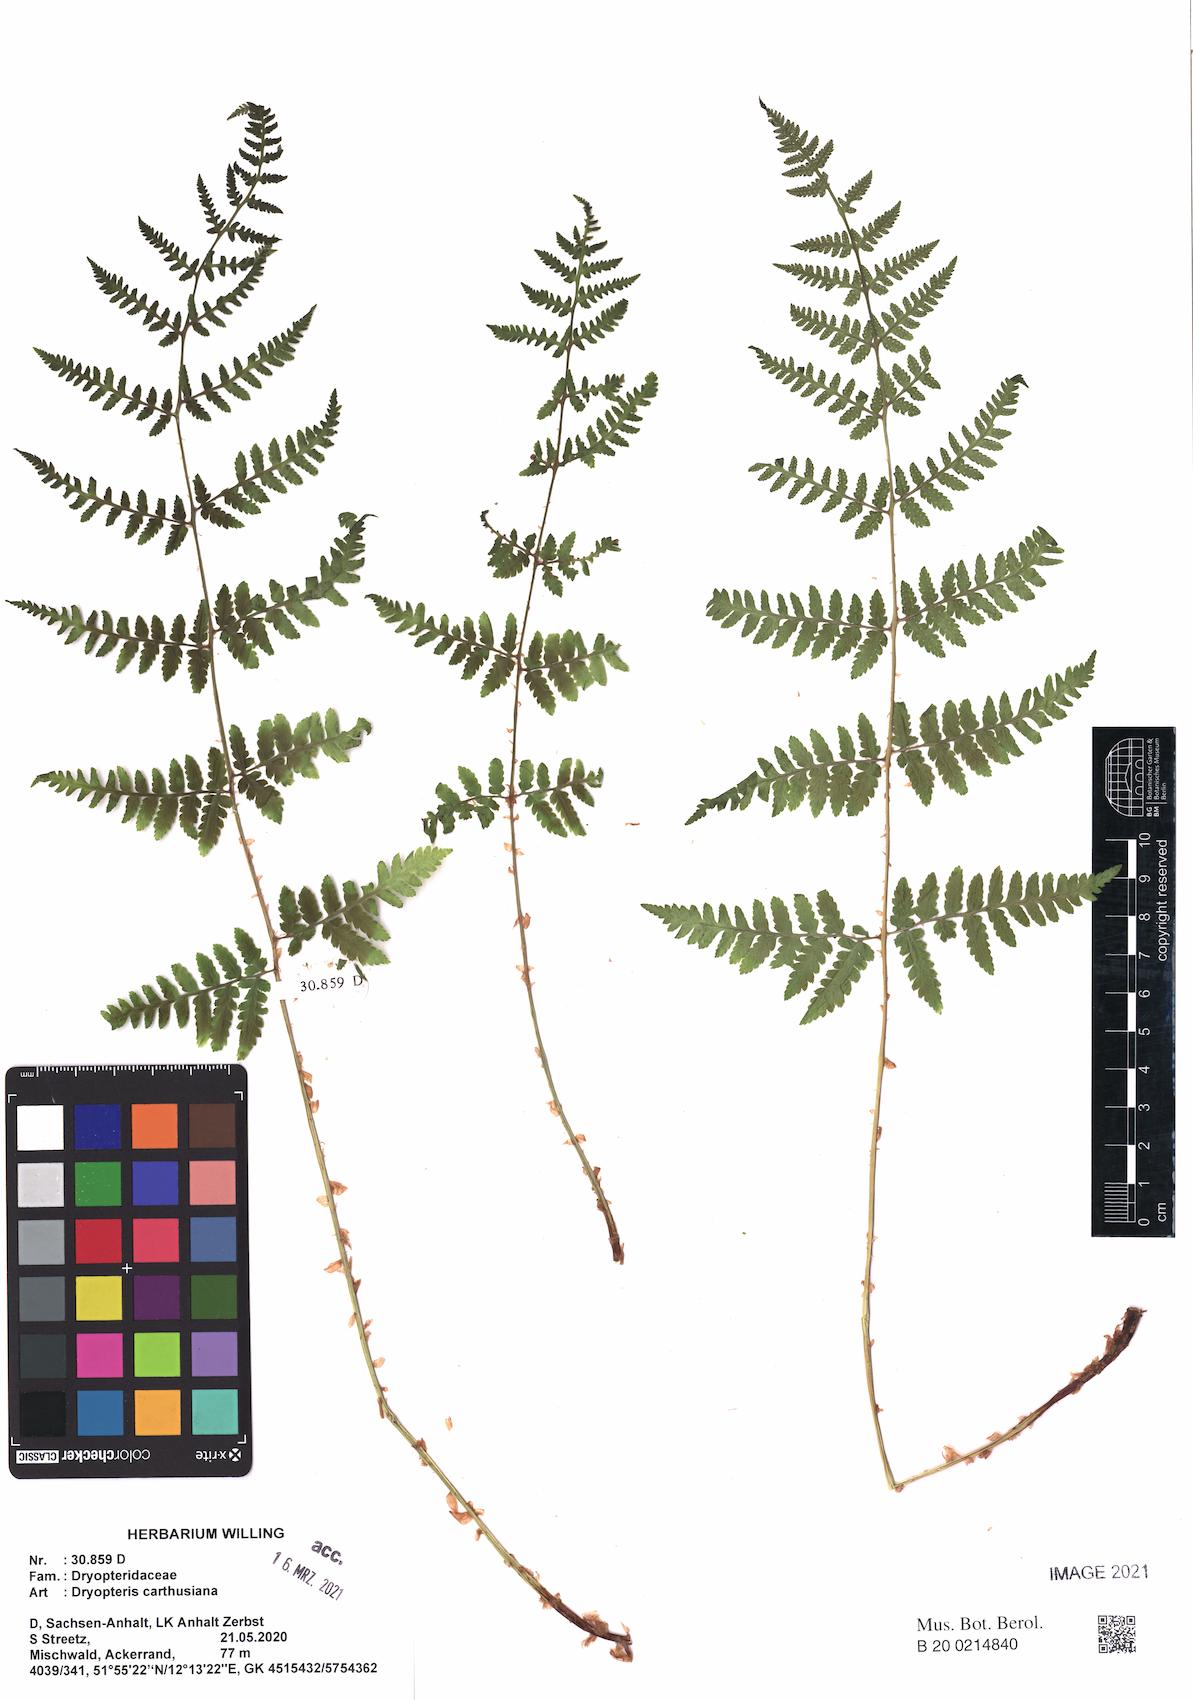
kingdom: Plantae
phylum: Tracheophyta
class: Polypodiopsida
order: Polypodiales
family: Dryopteridaceae
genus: Dryopteris
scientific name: Dryopteris carthusiana
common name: Narrow buckler-fern
